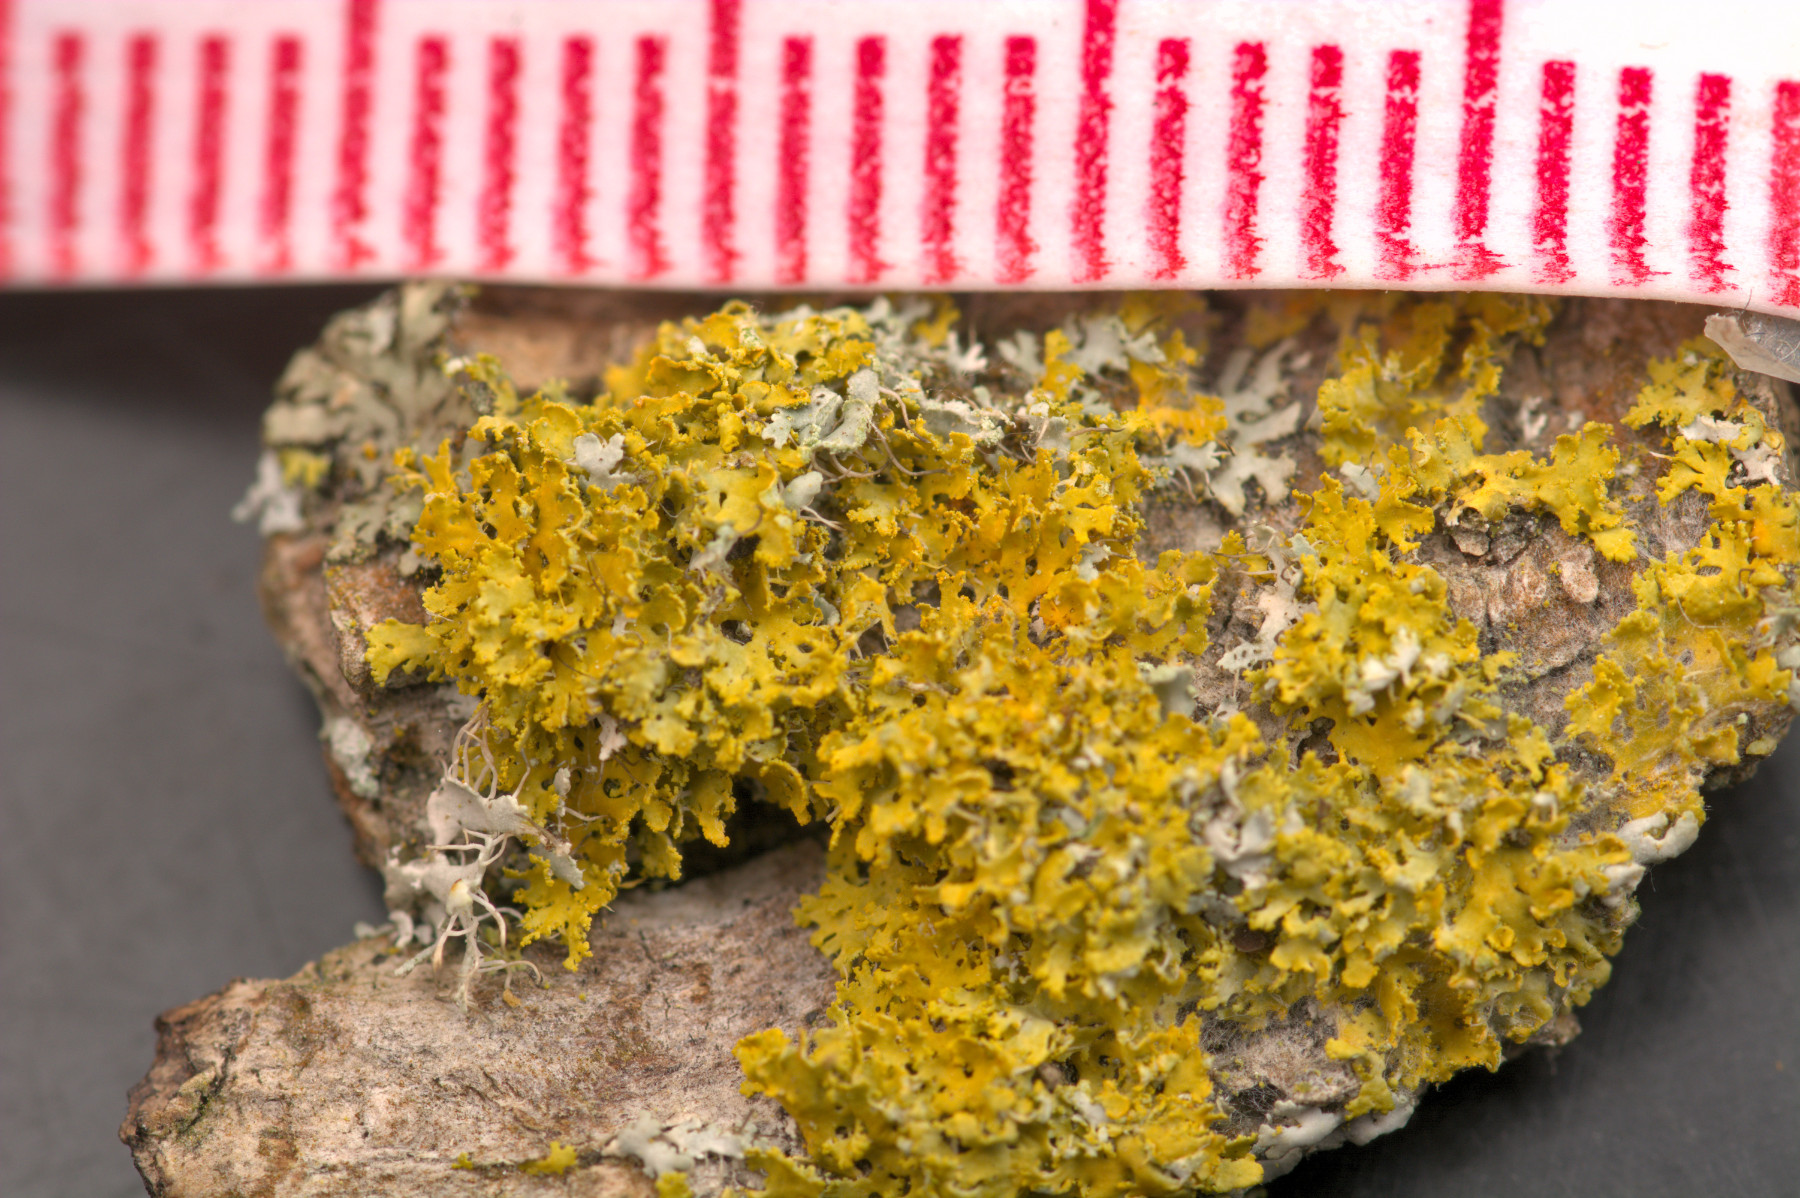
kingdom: Fungi
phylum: Ascomycota
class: Lecanoromycetes
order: Teloschistales
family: Teloschistaceae
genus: Xanthomendoza
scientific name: Xanthomendoza oregana
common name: Poelts væggelav
